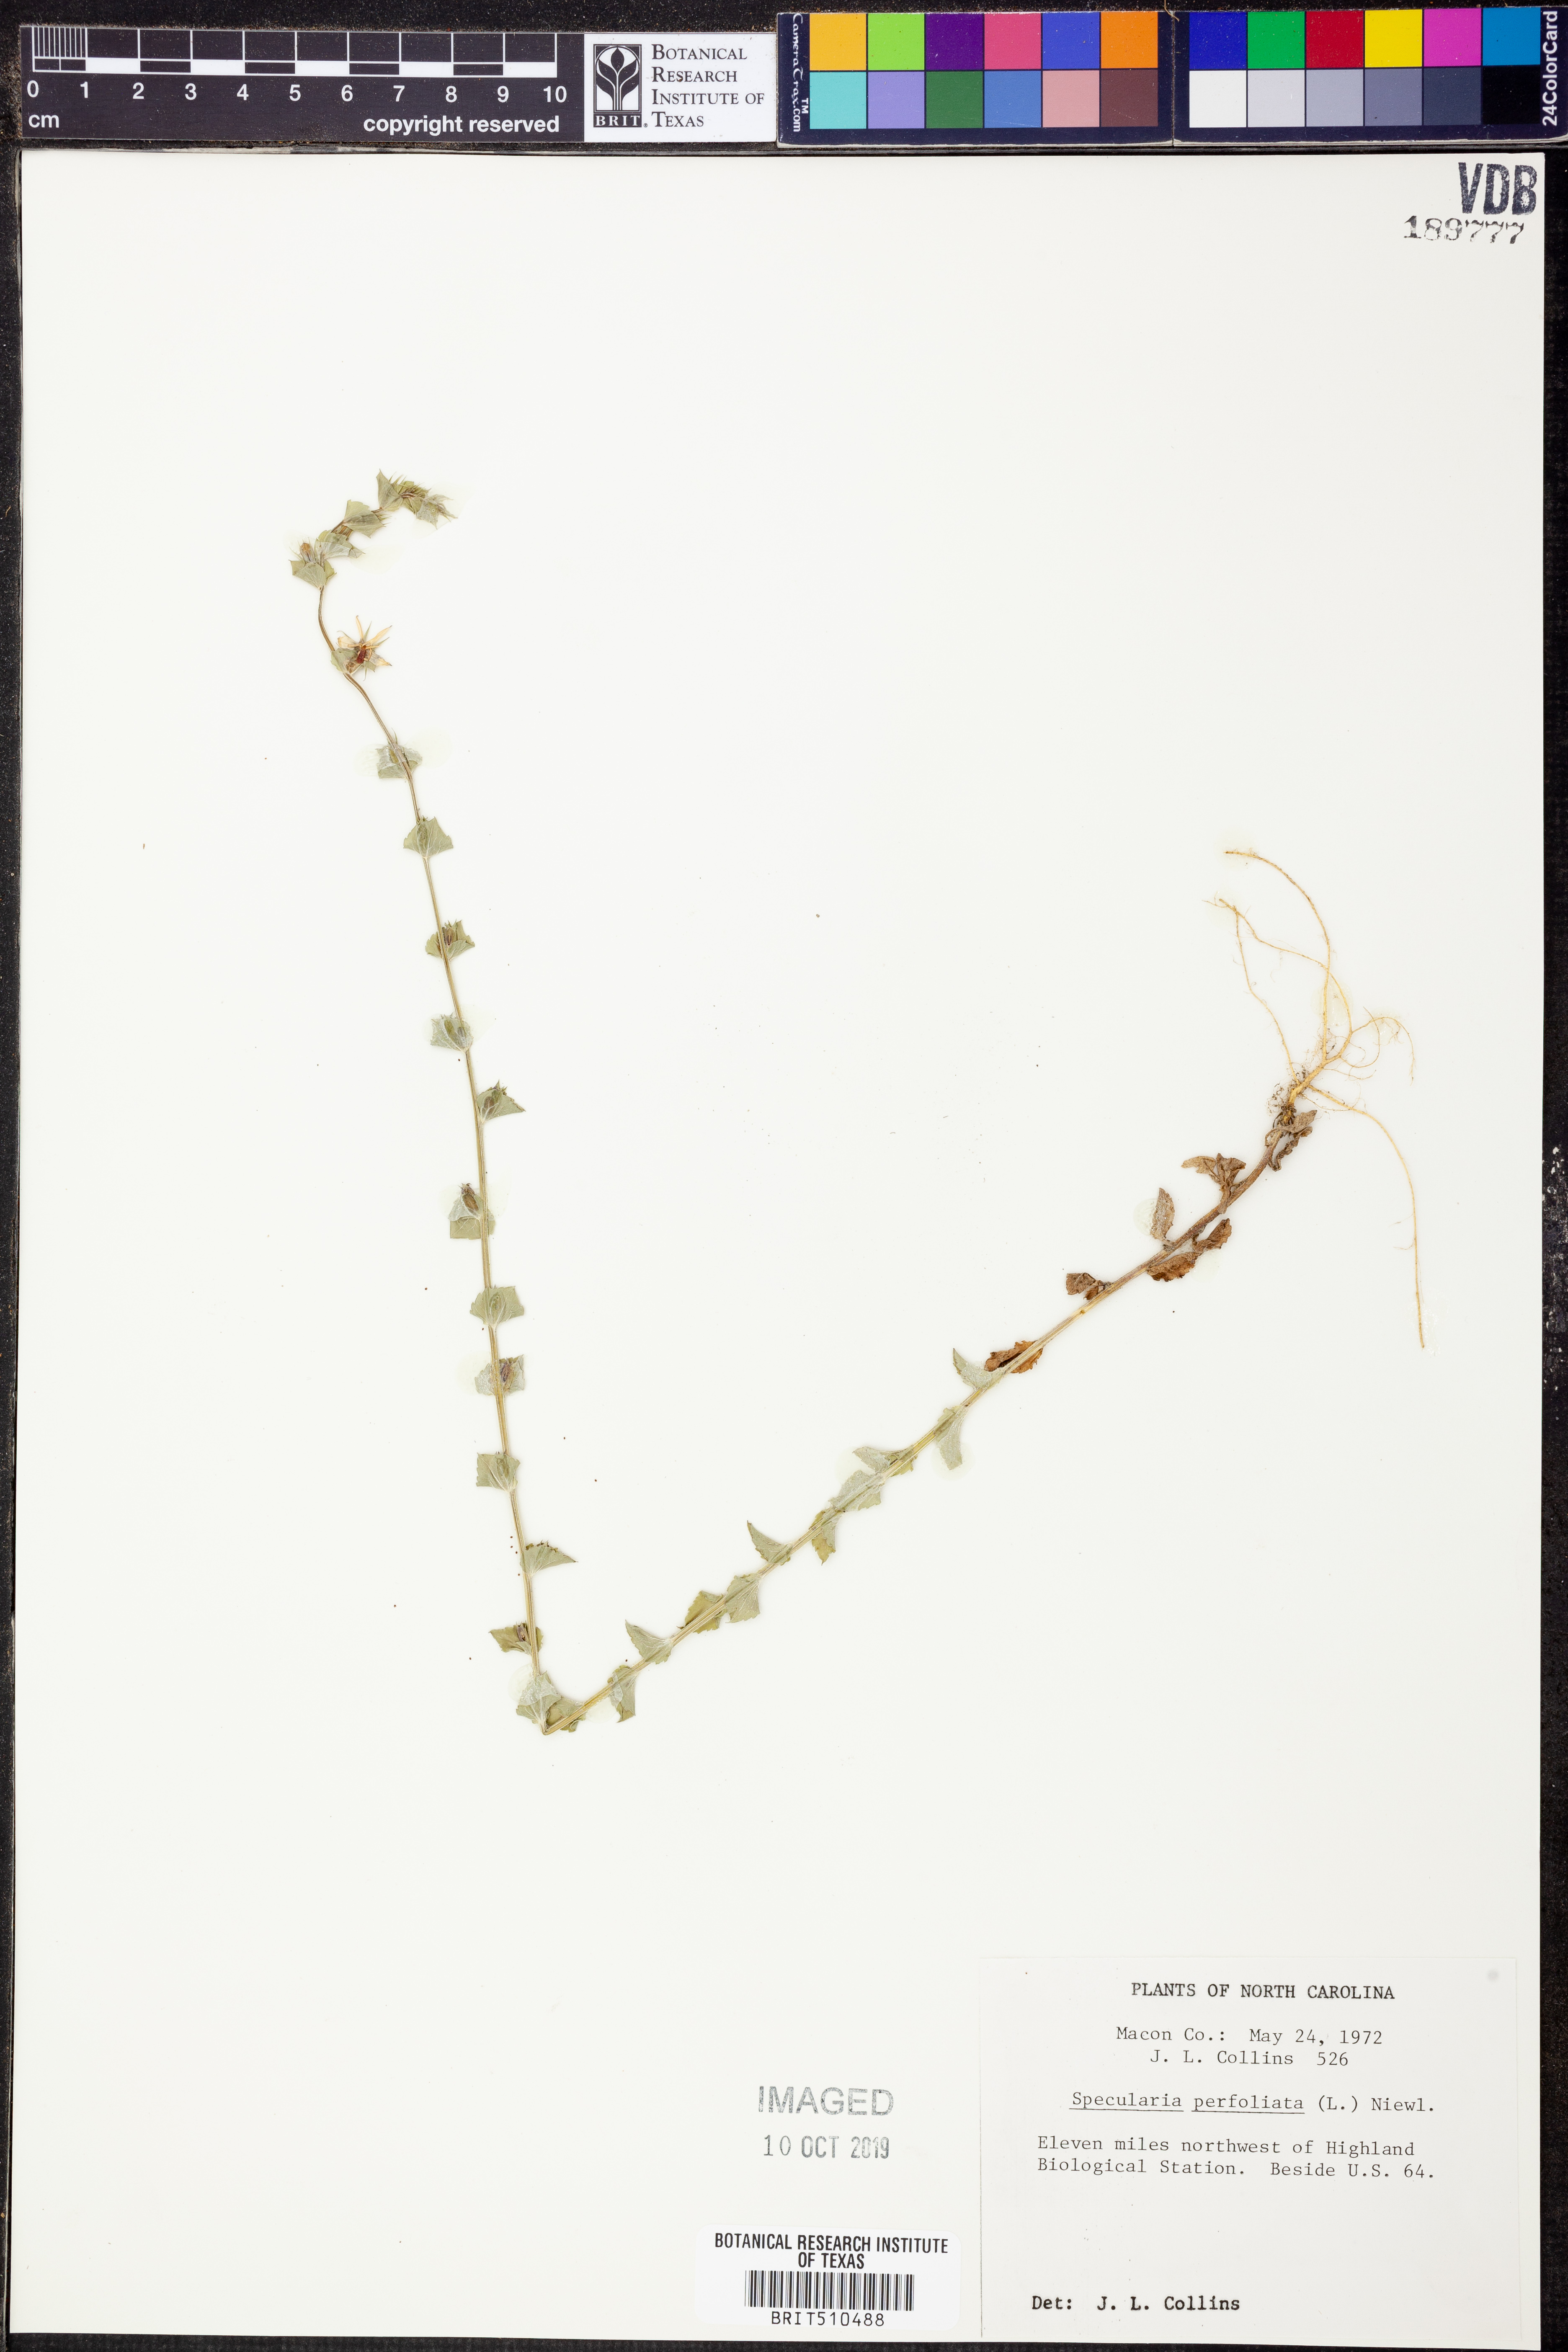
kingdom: Plantae
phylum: Tracheophyta
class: Magnoliopsida
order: Asterales
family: Campanulaceae
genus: Triodanis
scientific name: Triodanis perfoliata
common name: Clasping venus' looking-glass
